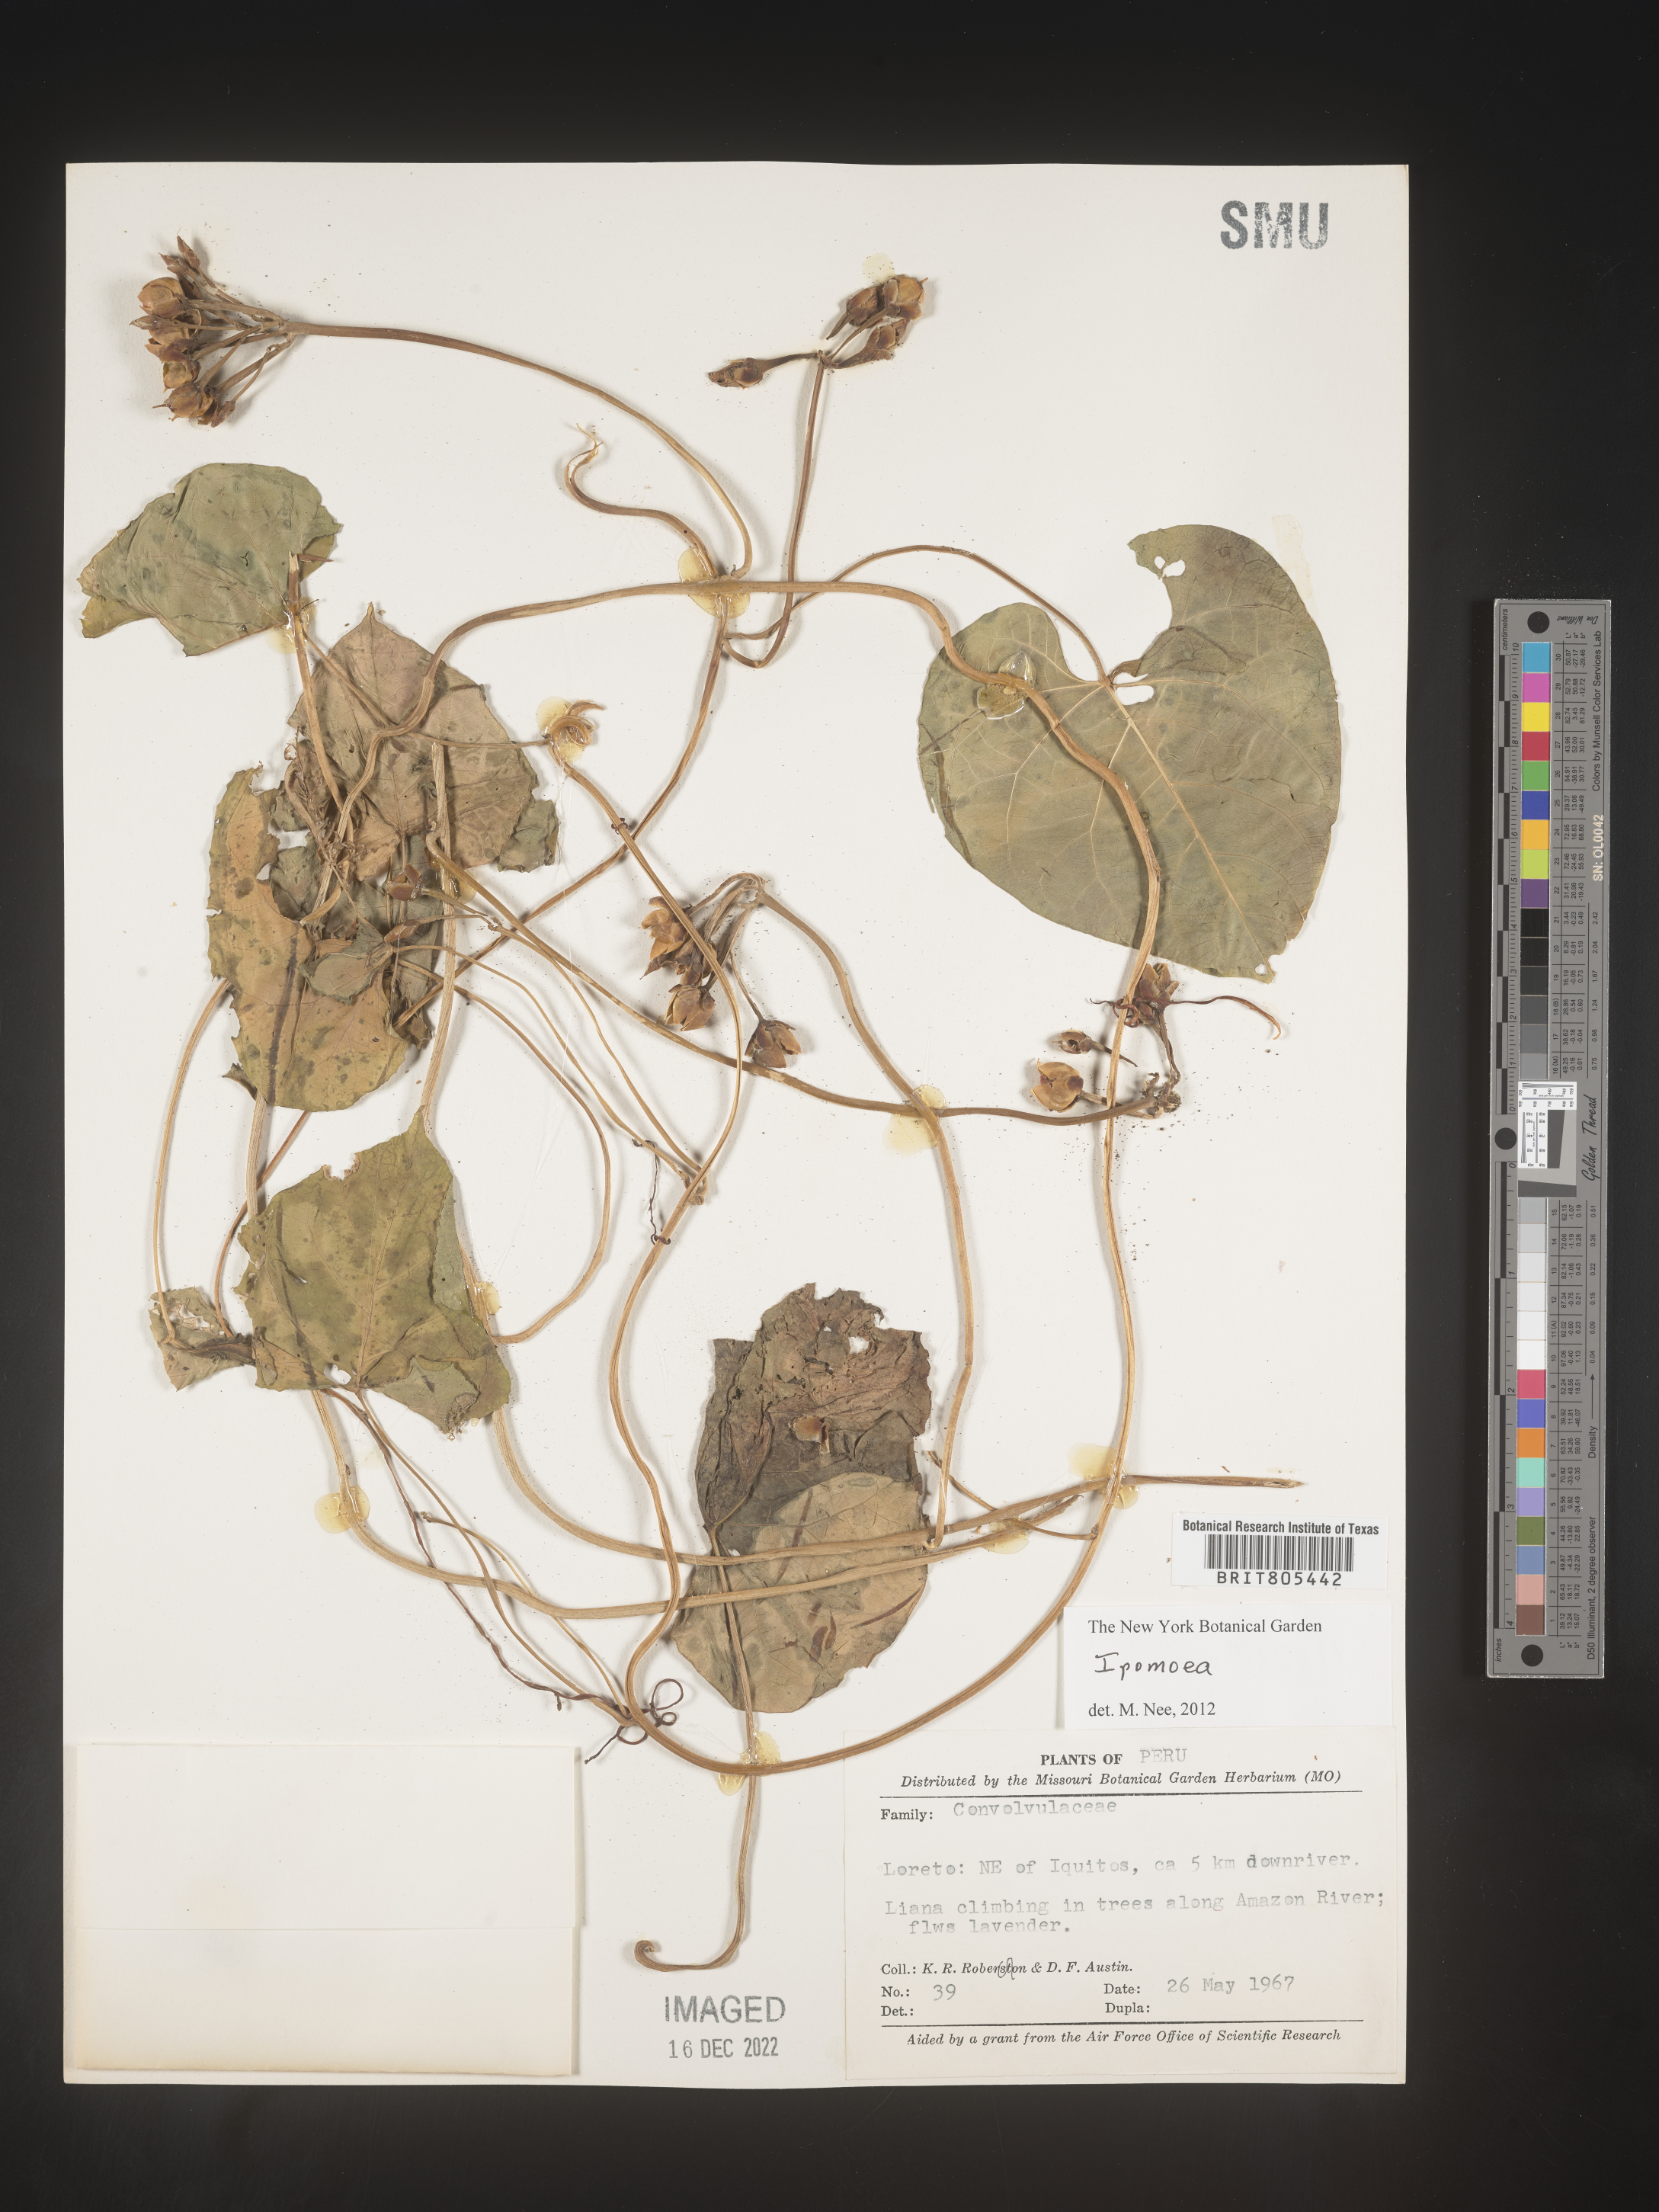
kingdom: Plantae
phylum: Tracheophyta
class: Magnoliopsida
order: Solanales
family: Convolvulaceae
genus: Ipomoea
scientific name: Ipomoea
